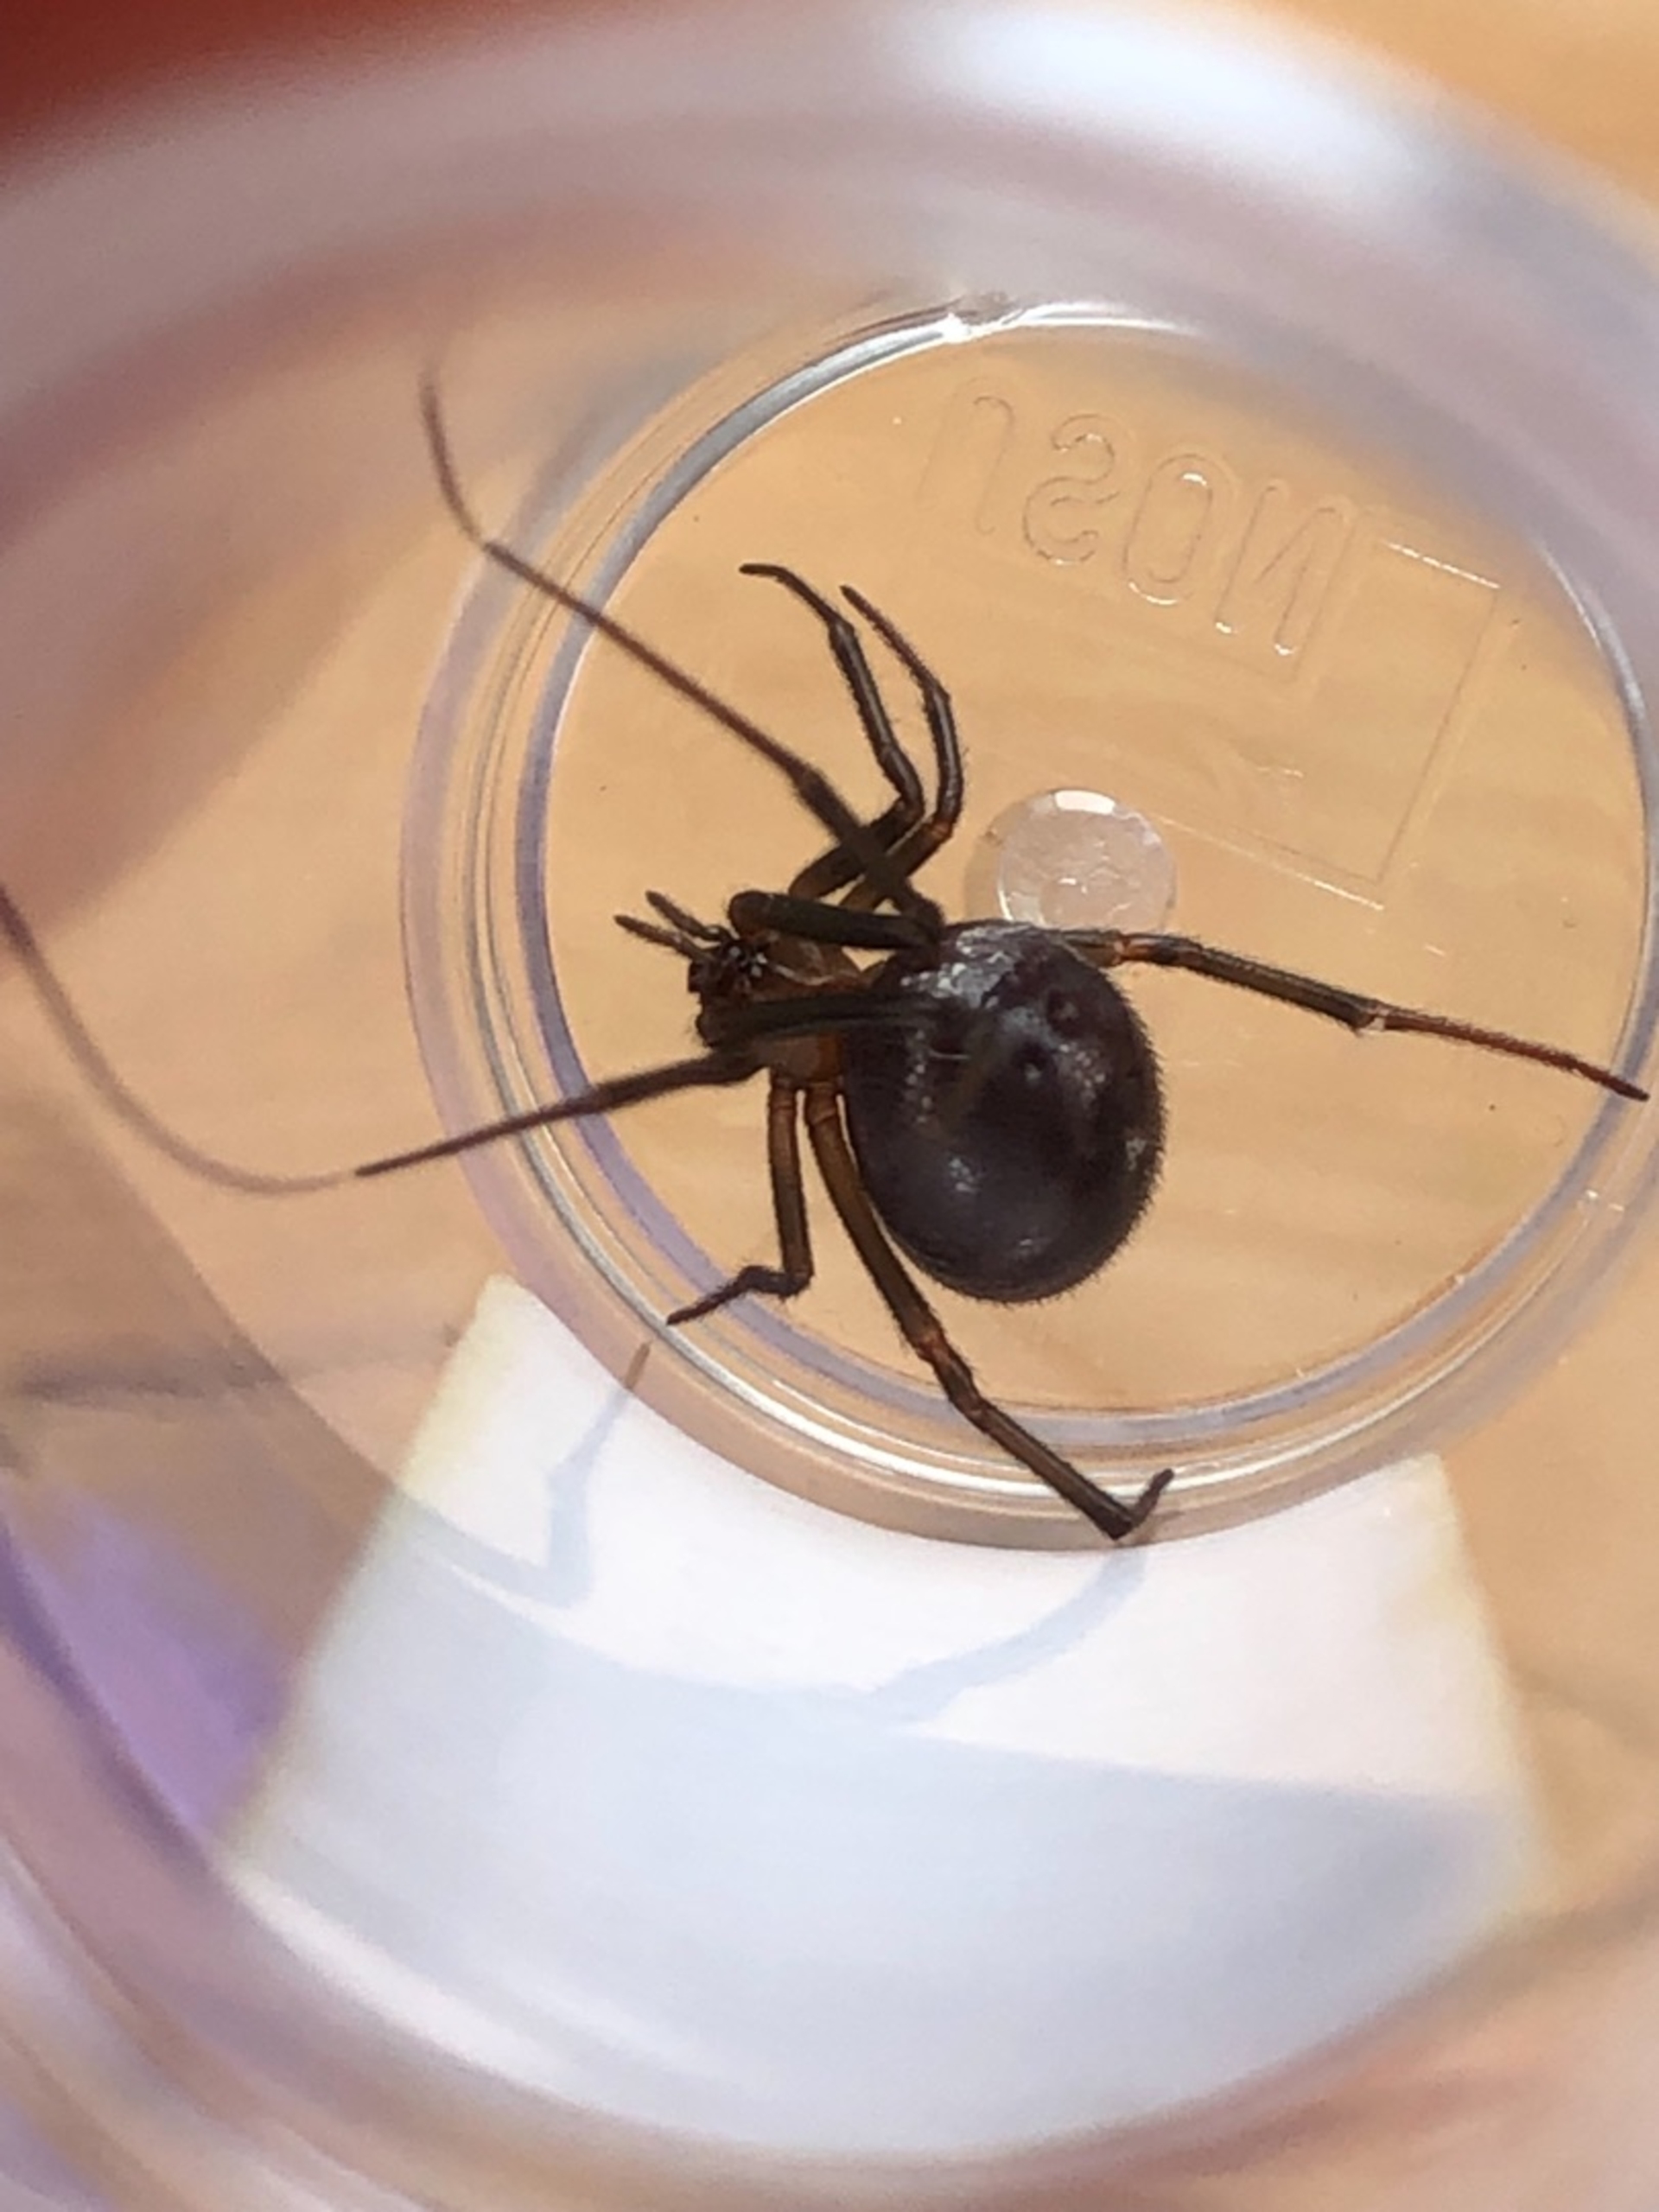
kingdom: Animalia
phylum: Arthropoda
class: Arachnida
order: Araneae
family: Theridiidae
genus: Steatoda
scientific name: Steatoda grossa
